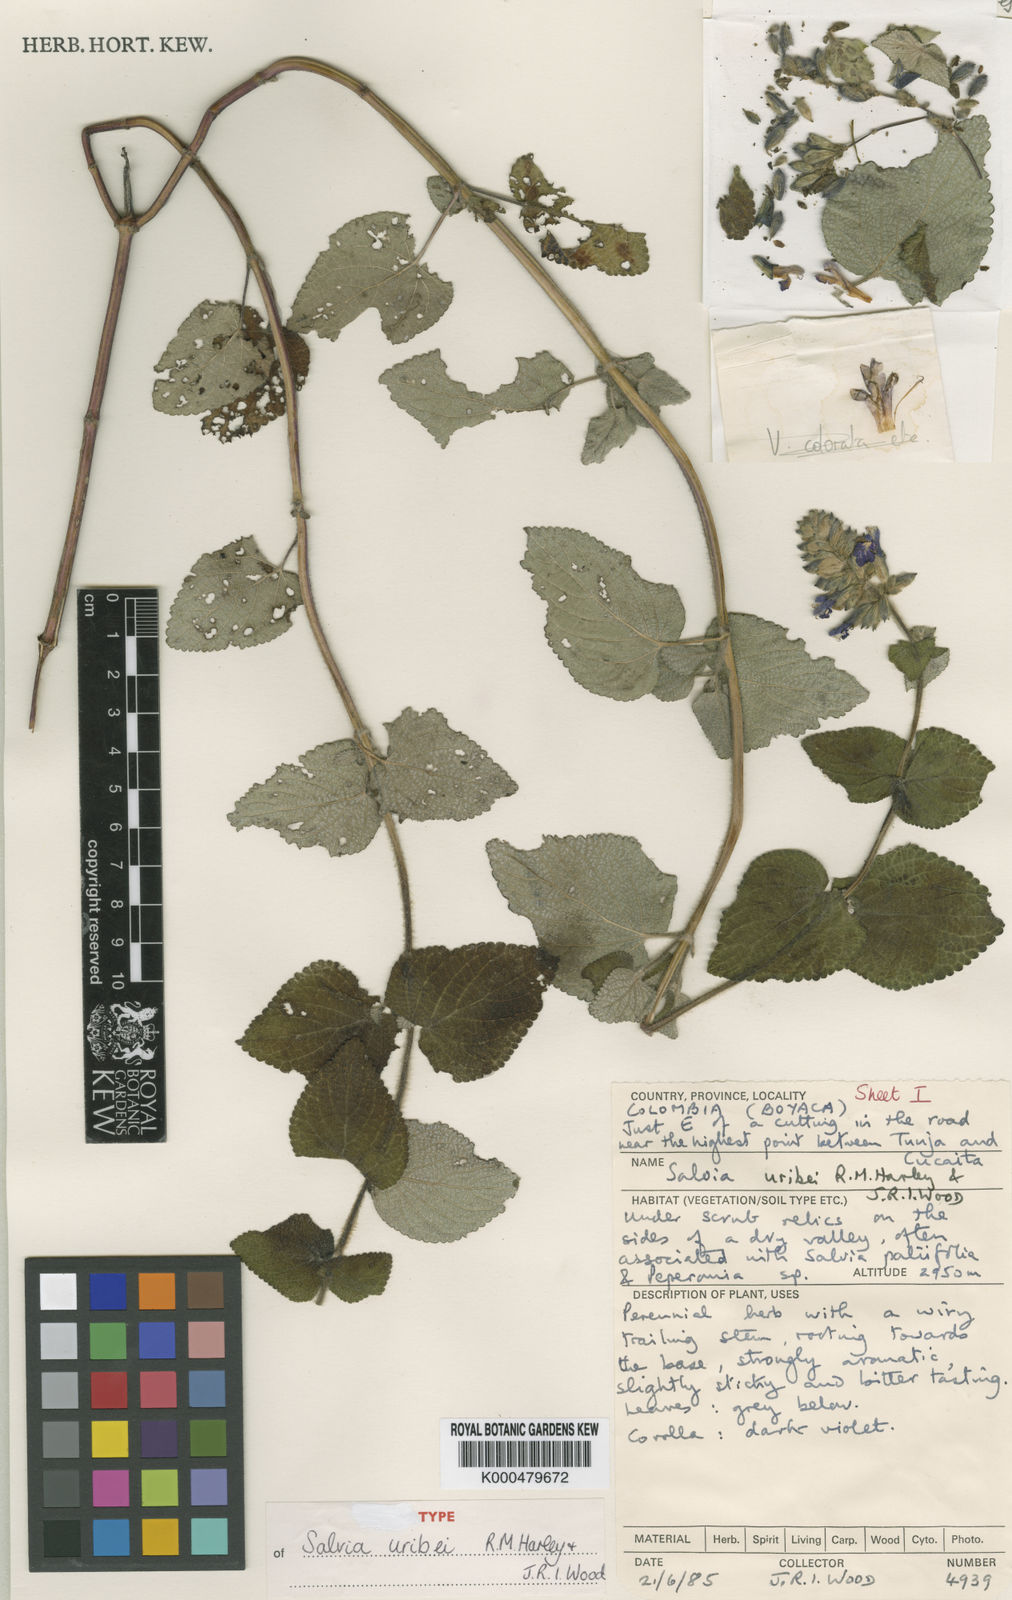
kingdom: Plantae
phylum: Tracheophyta
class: Magnoliopsida
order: Lamiales
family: Lamiaceae
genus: Salvia
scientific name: Salvia uribei
